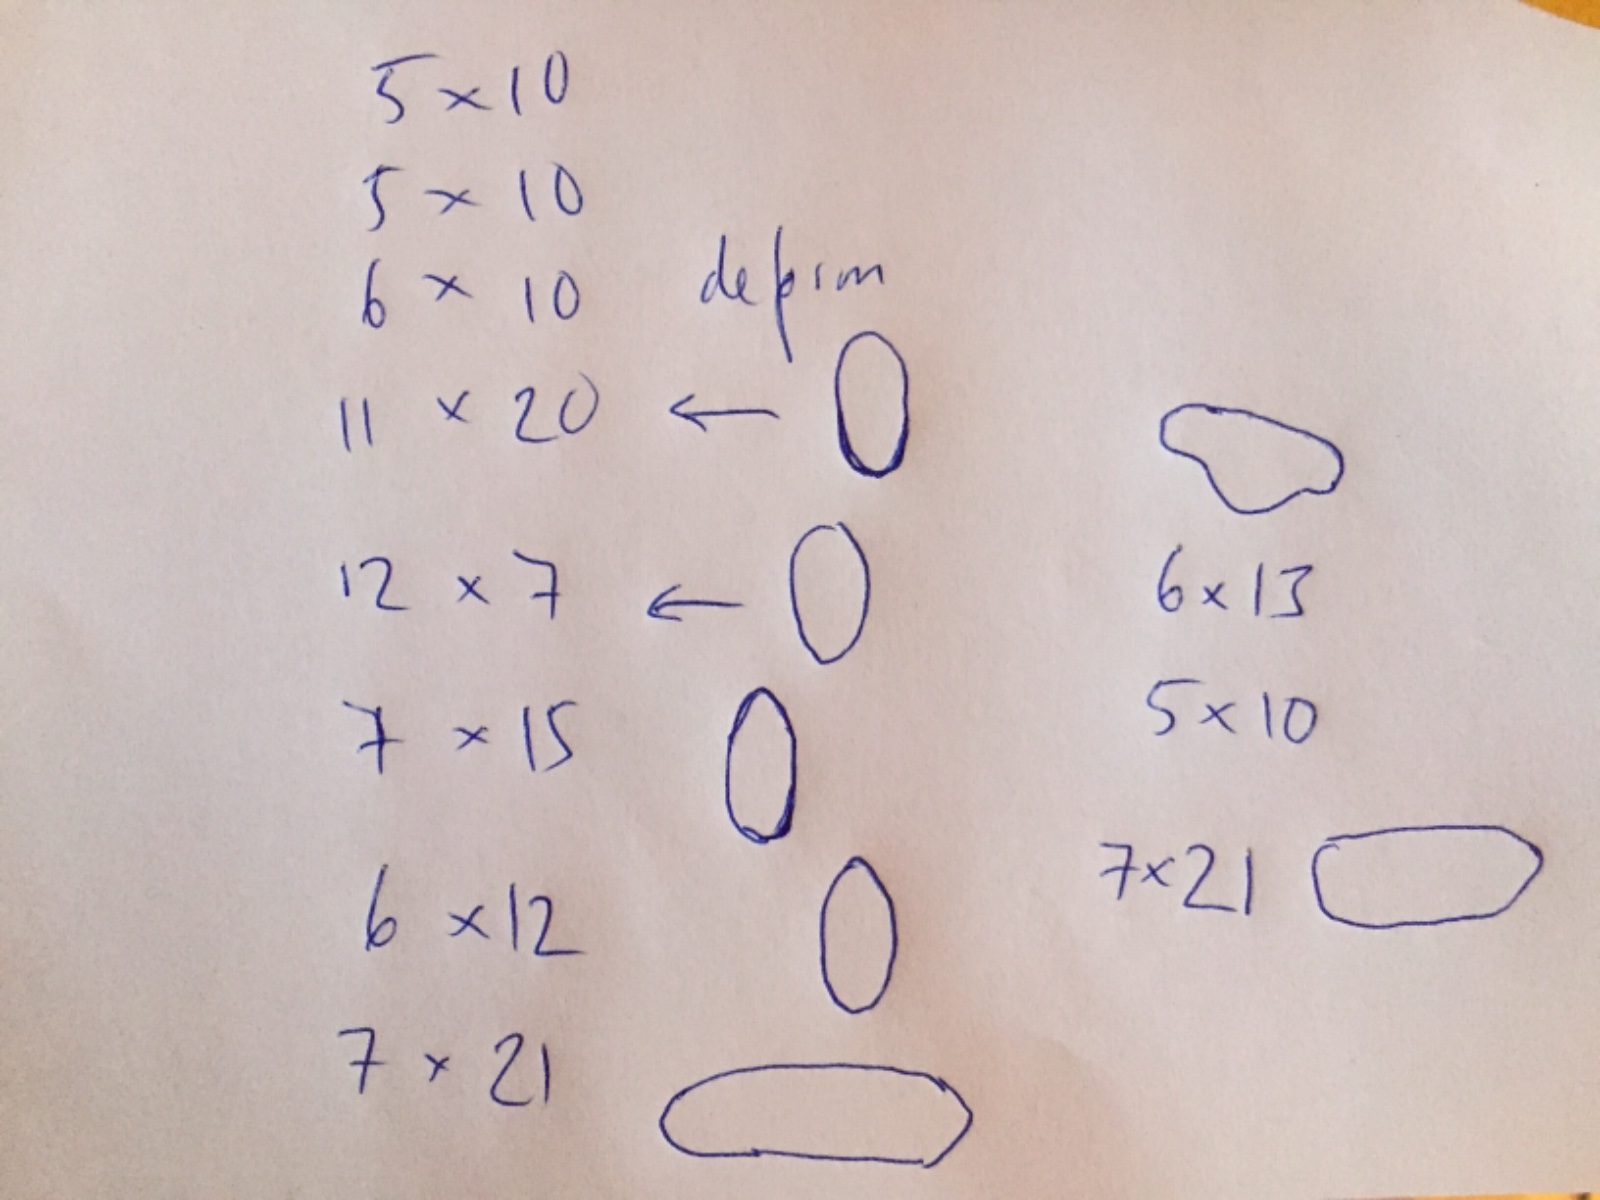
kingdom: Fungi
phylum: Basidiomycota
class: Agaricomycetes
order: Agaricales
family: Mycenaceae
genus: Hemimycena
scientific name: Hemimycena epichloe
